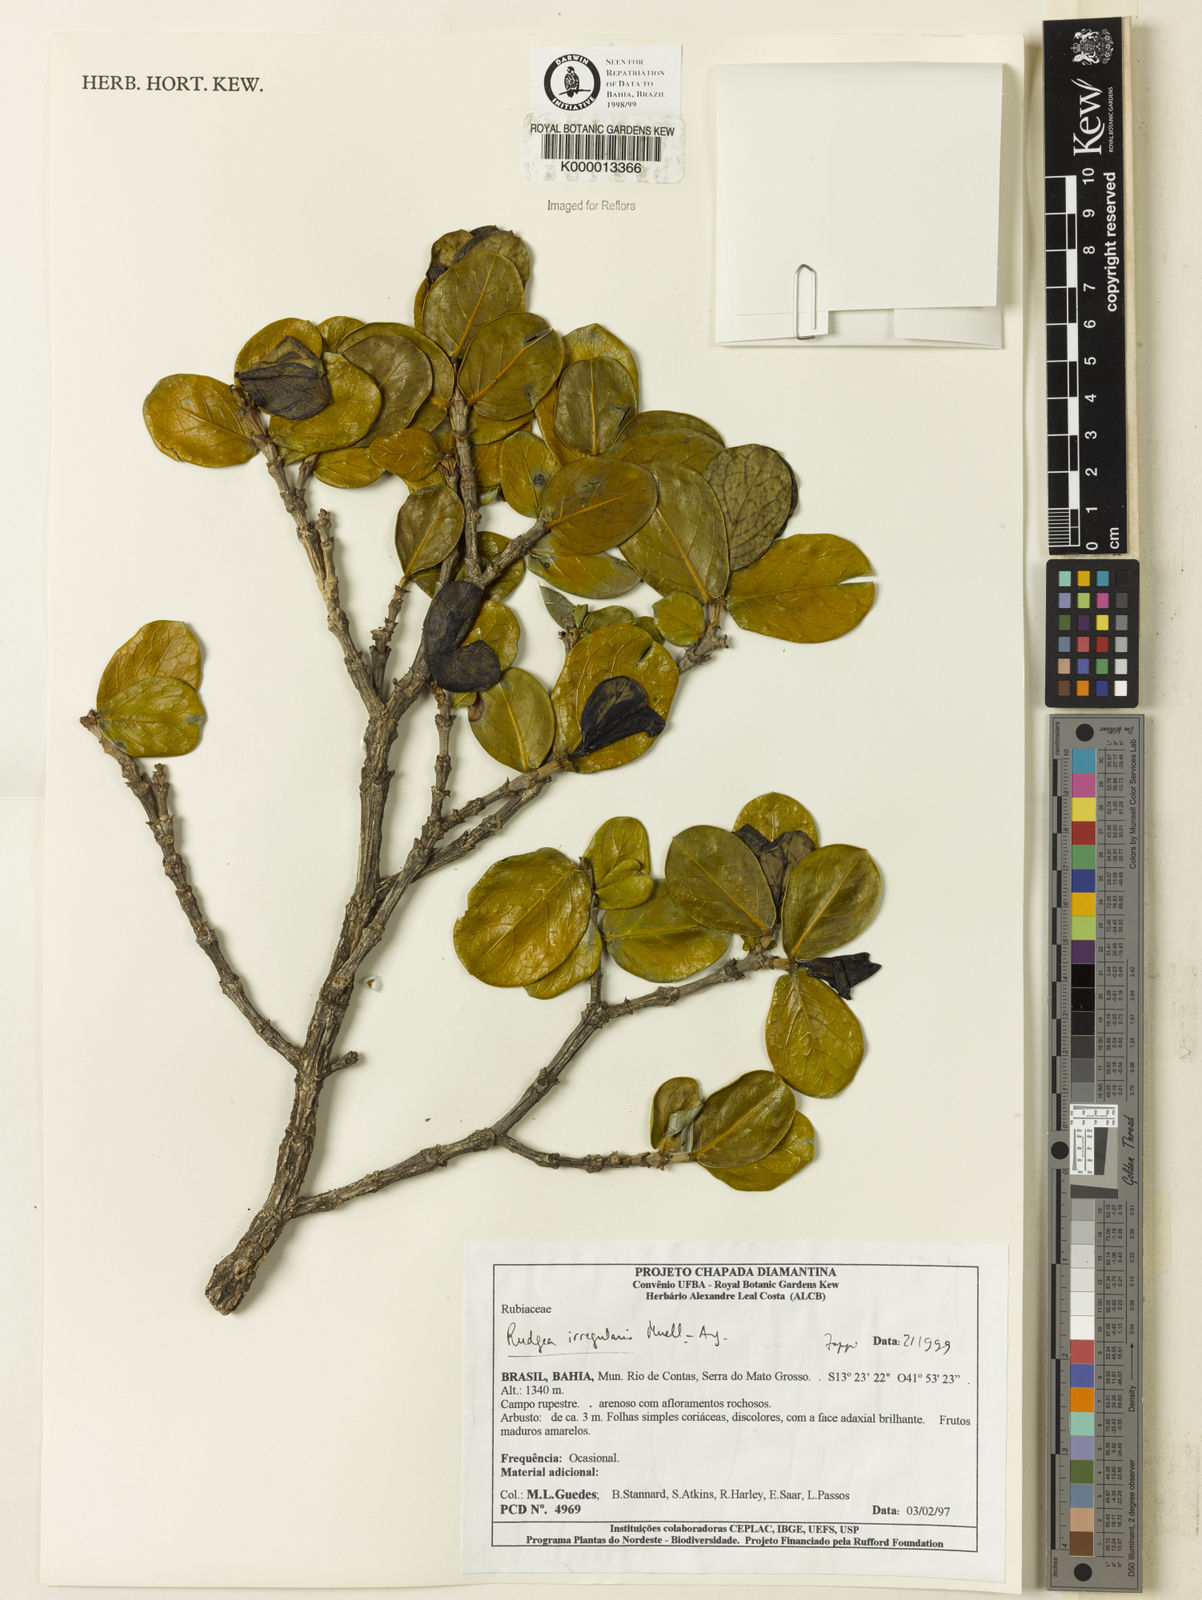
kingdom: Plantae
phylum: Tracheophyta
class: Magnoliopsida
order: Gentianales
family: Rubiaceae
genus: Rudgea
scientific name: Rudgea irregularis
